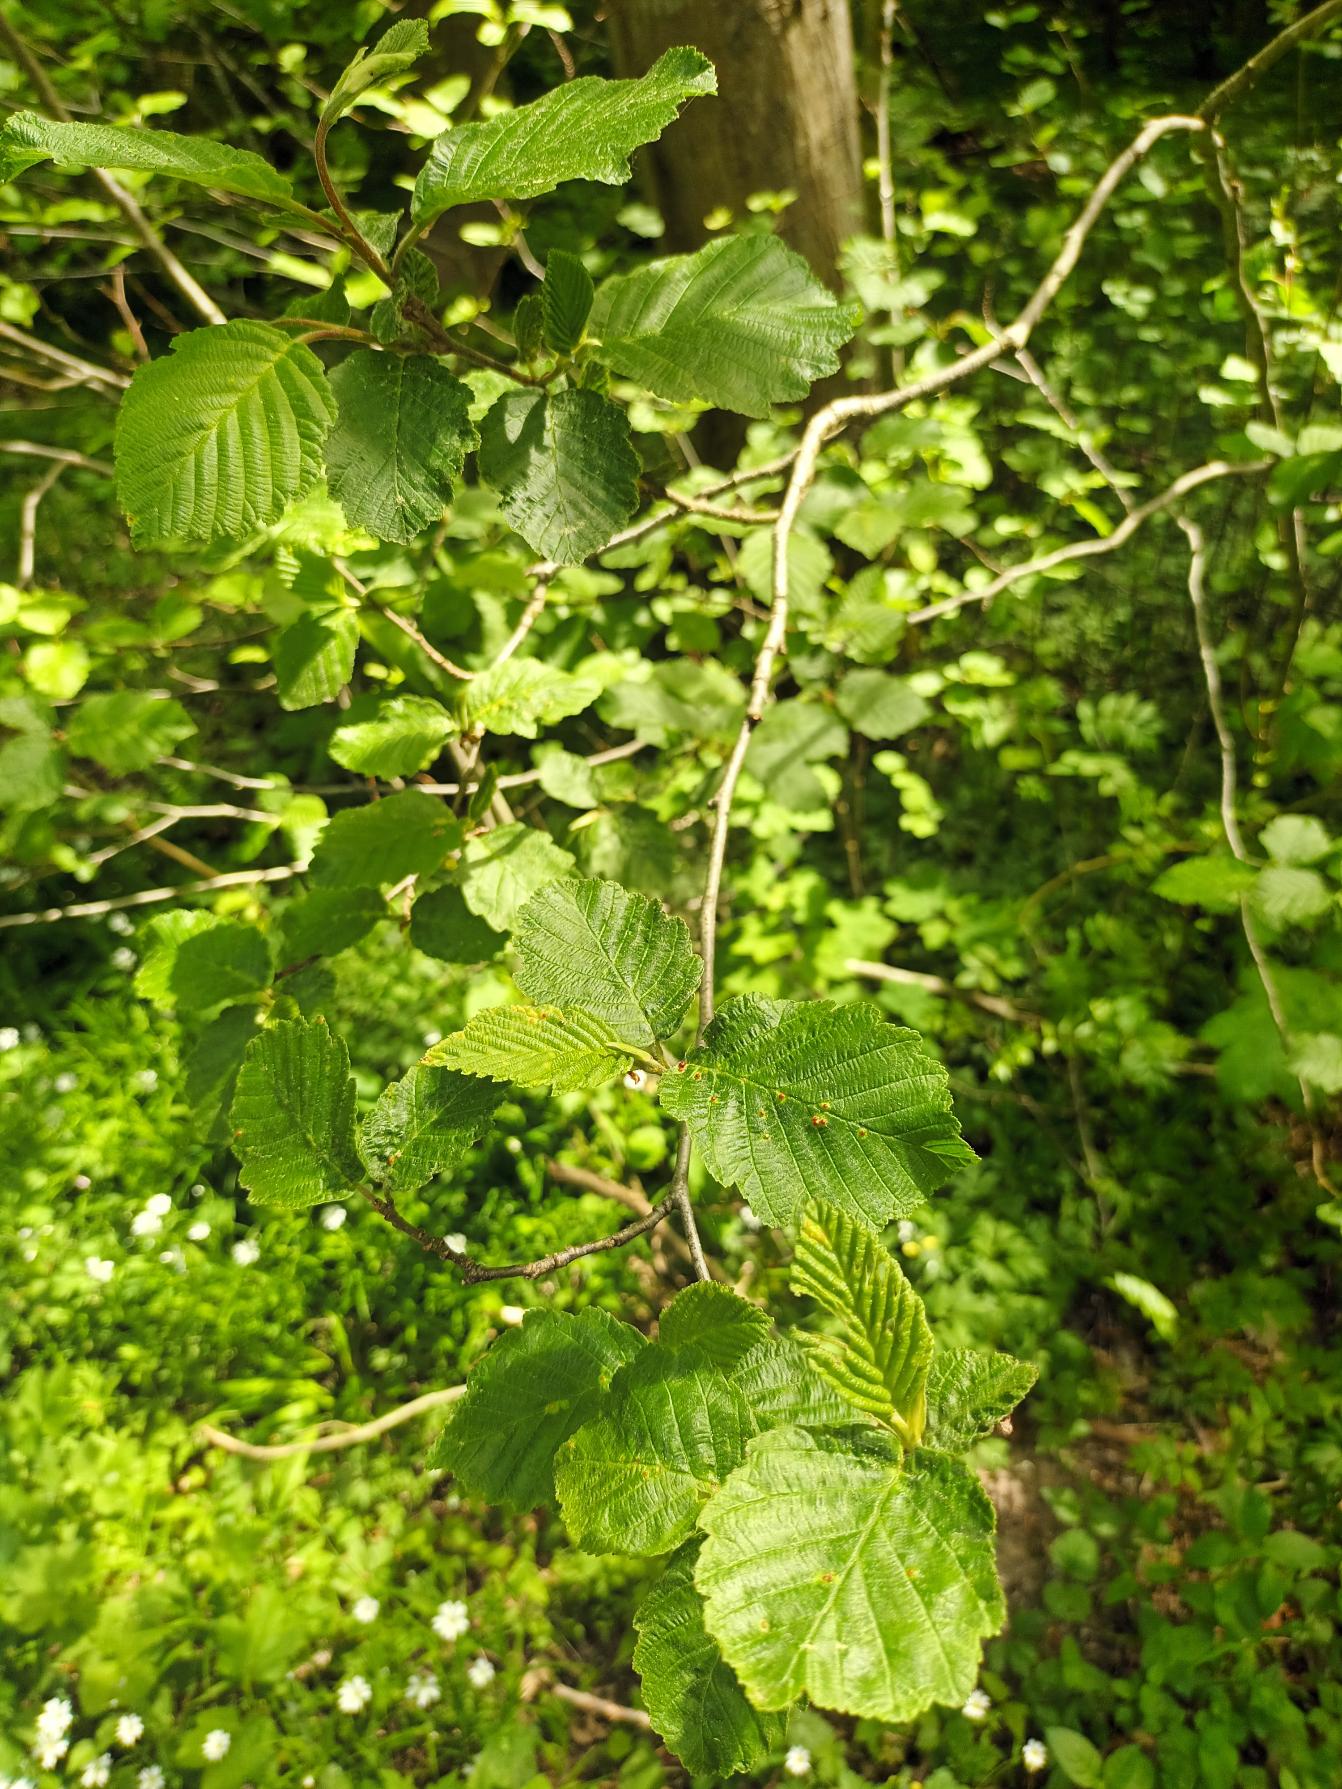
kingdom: Plantae
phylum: Tracheophyta
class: Magnoliopsida
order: Fagales
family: Betulaceae
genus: Alnus
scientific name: Alnus incana
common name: Grå-el/hvid-el
